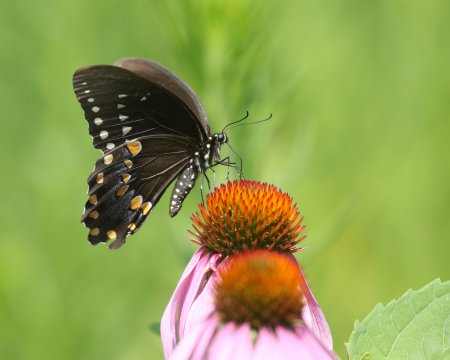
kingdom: Animalia
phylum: Arthropoda
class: Insecta
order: Lepidoptera
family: Papilionidae
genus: Pterourus
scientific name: Pterourus troilus
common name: Spicebush Swallowtail
